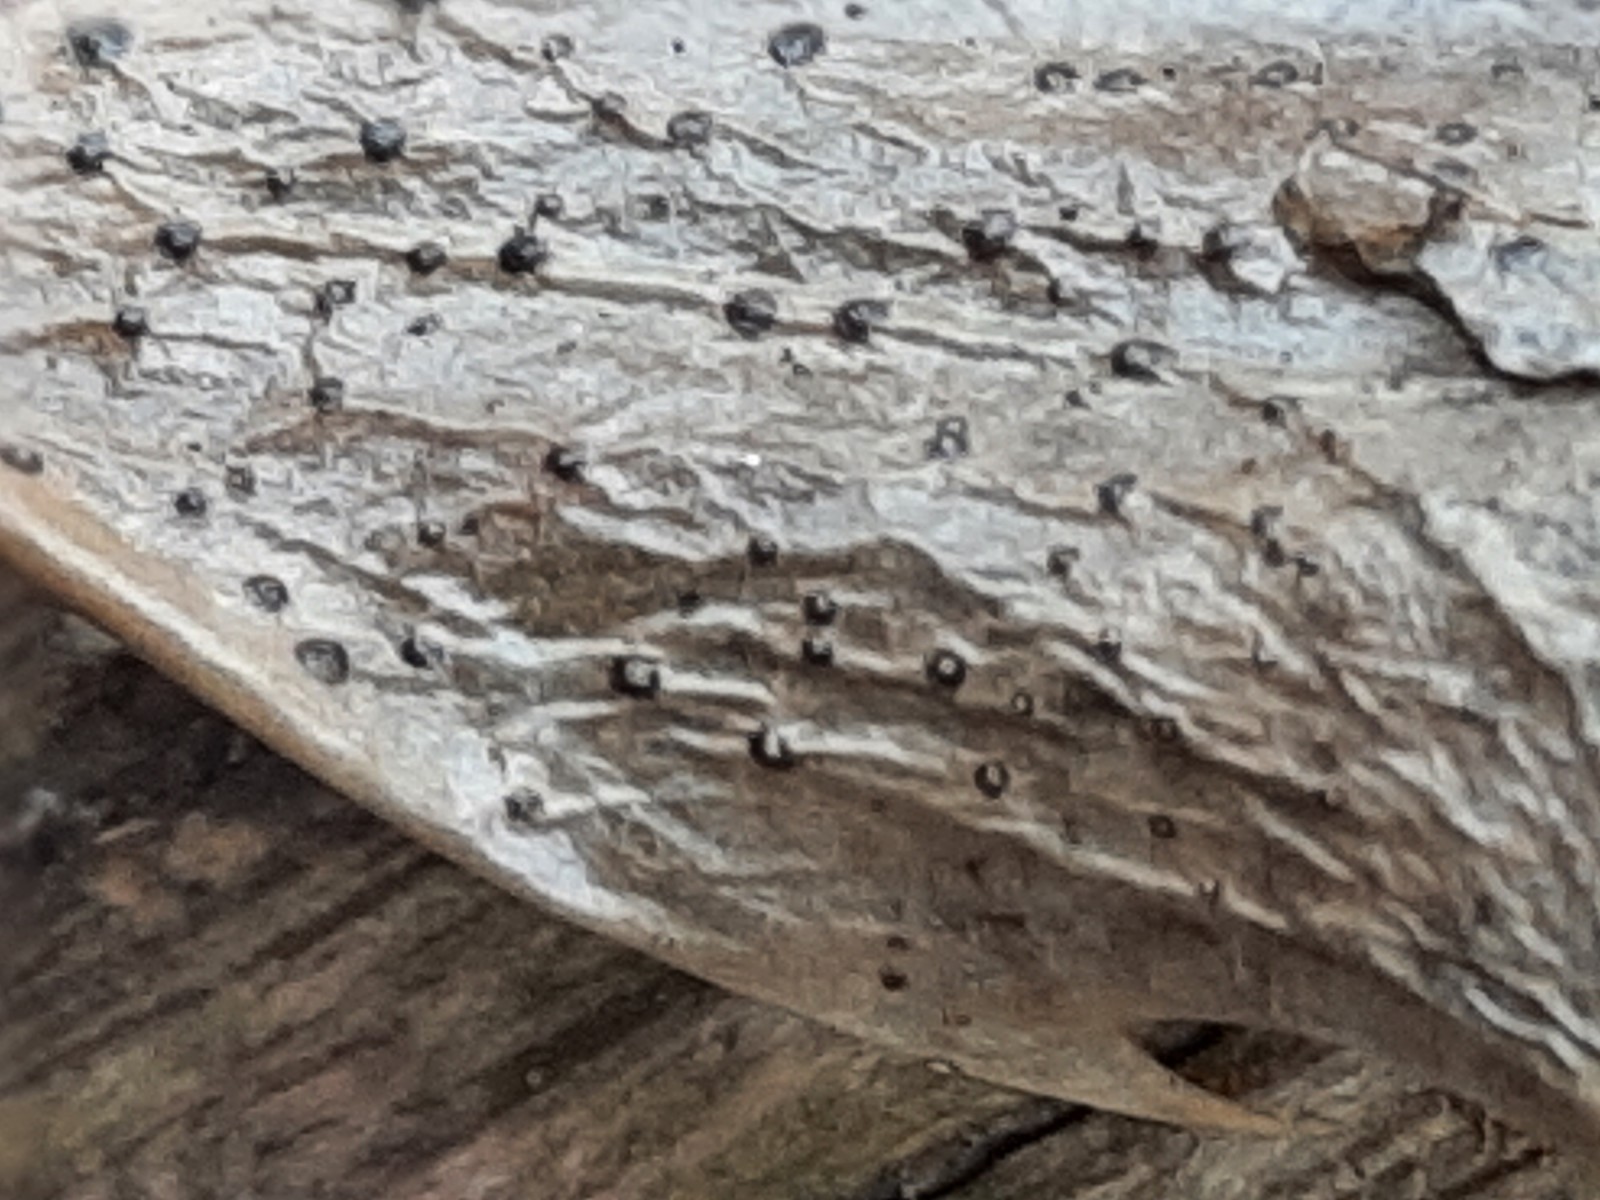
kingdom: Fungi
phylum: Ascomycota
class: Leotiomycetes
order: Phacidiales
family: Phacidiaceae
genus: Phacidium
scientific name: Phacidium lauri
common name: kristtorn-tandskive
